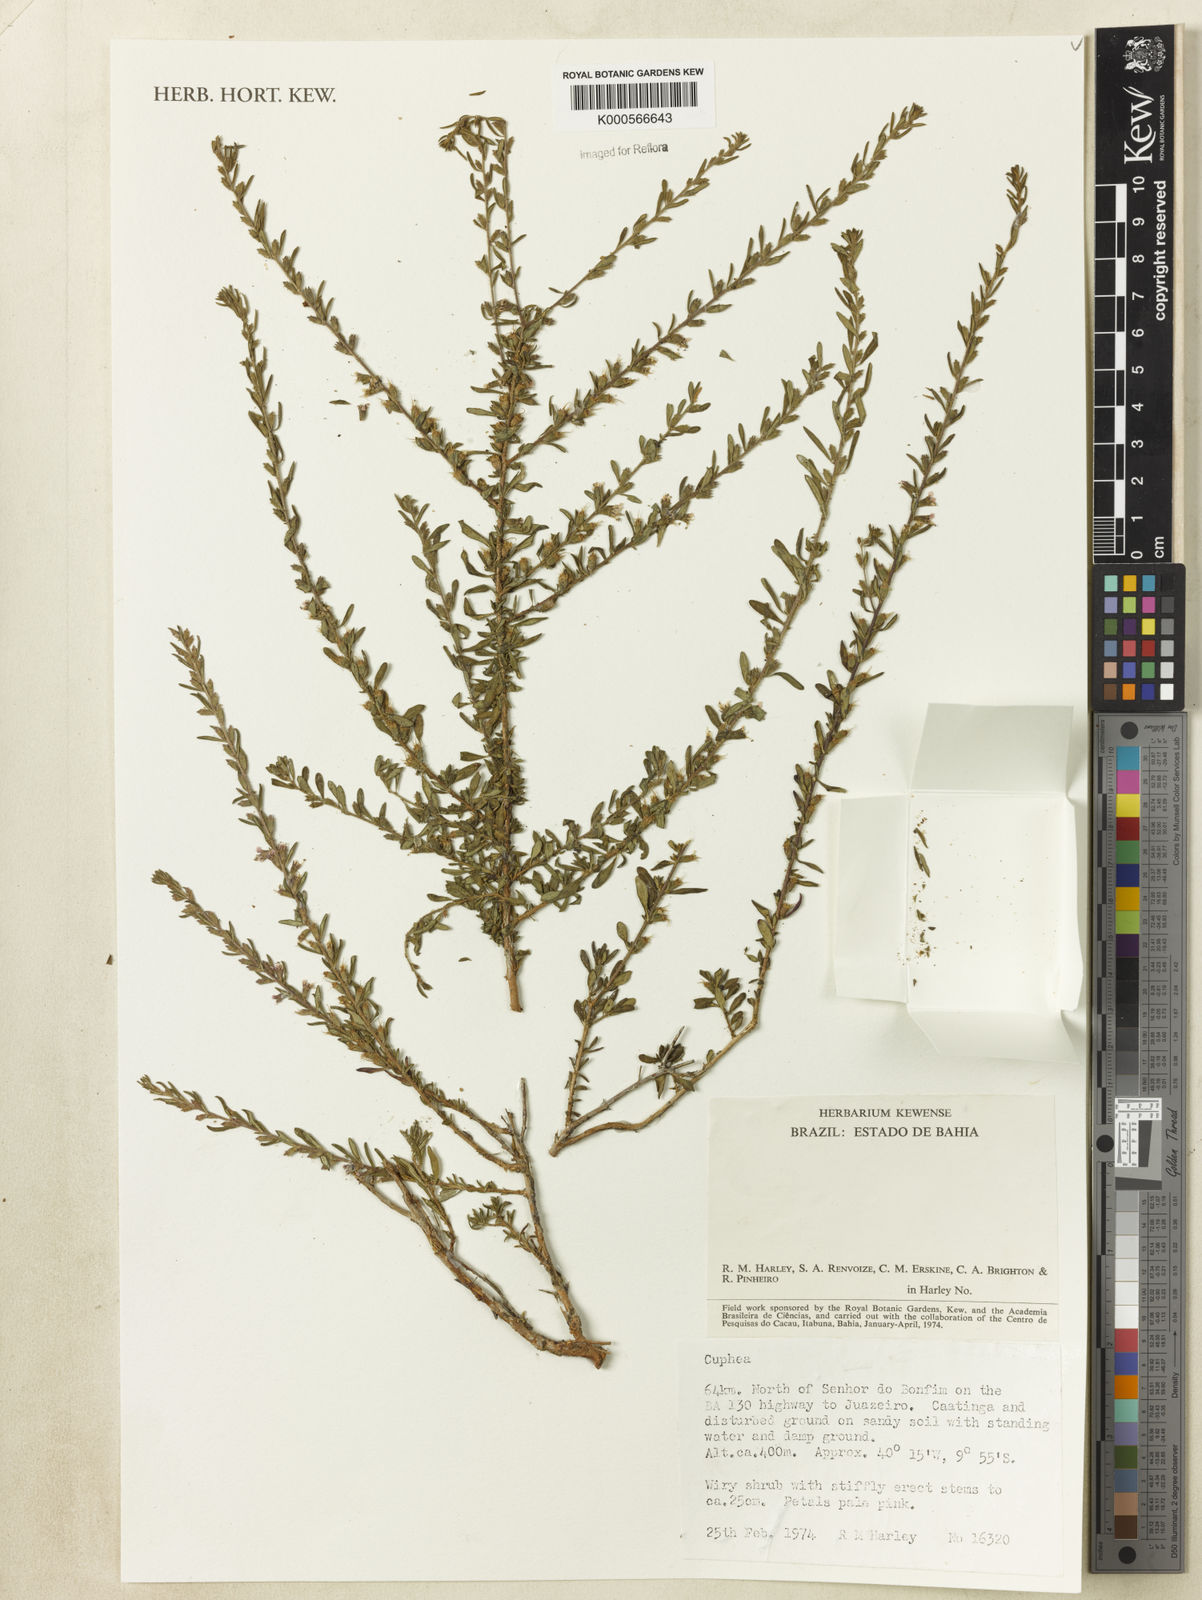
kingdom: Plantae
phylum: Tracheophyta
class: Magnoliopsida
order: Myrtales
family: Lythraceae
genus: Cuphea
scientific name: Cuphea
